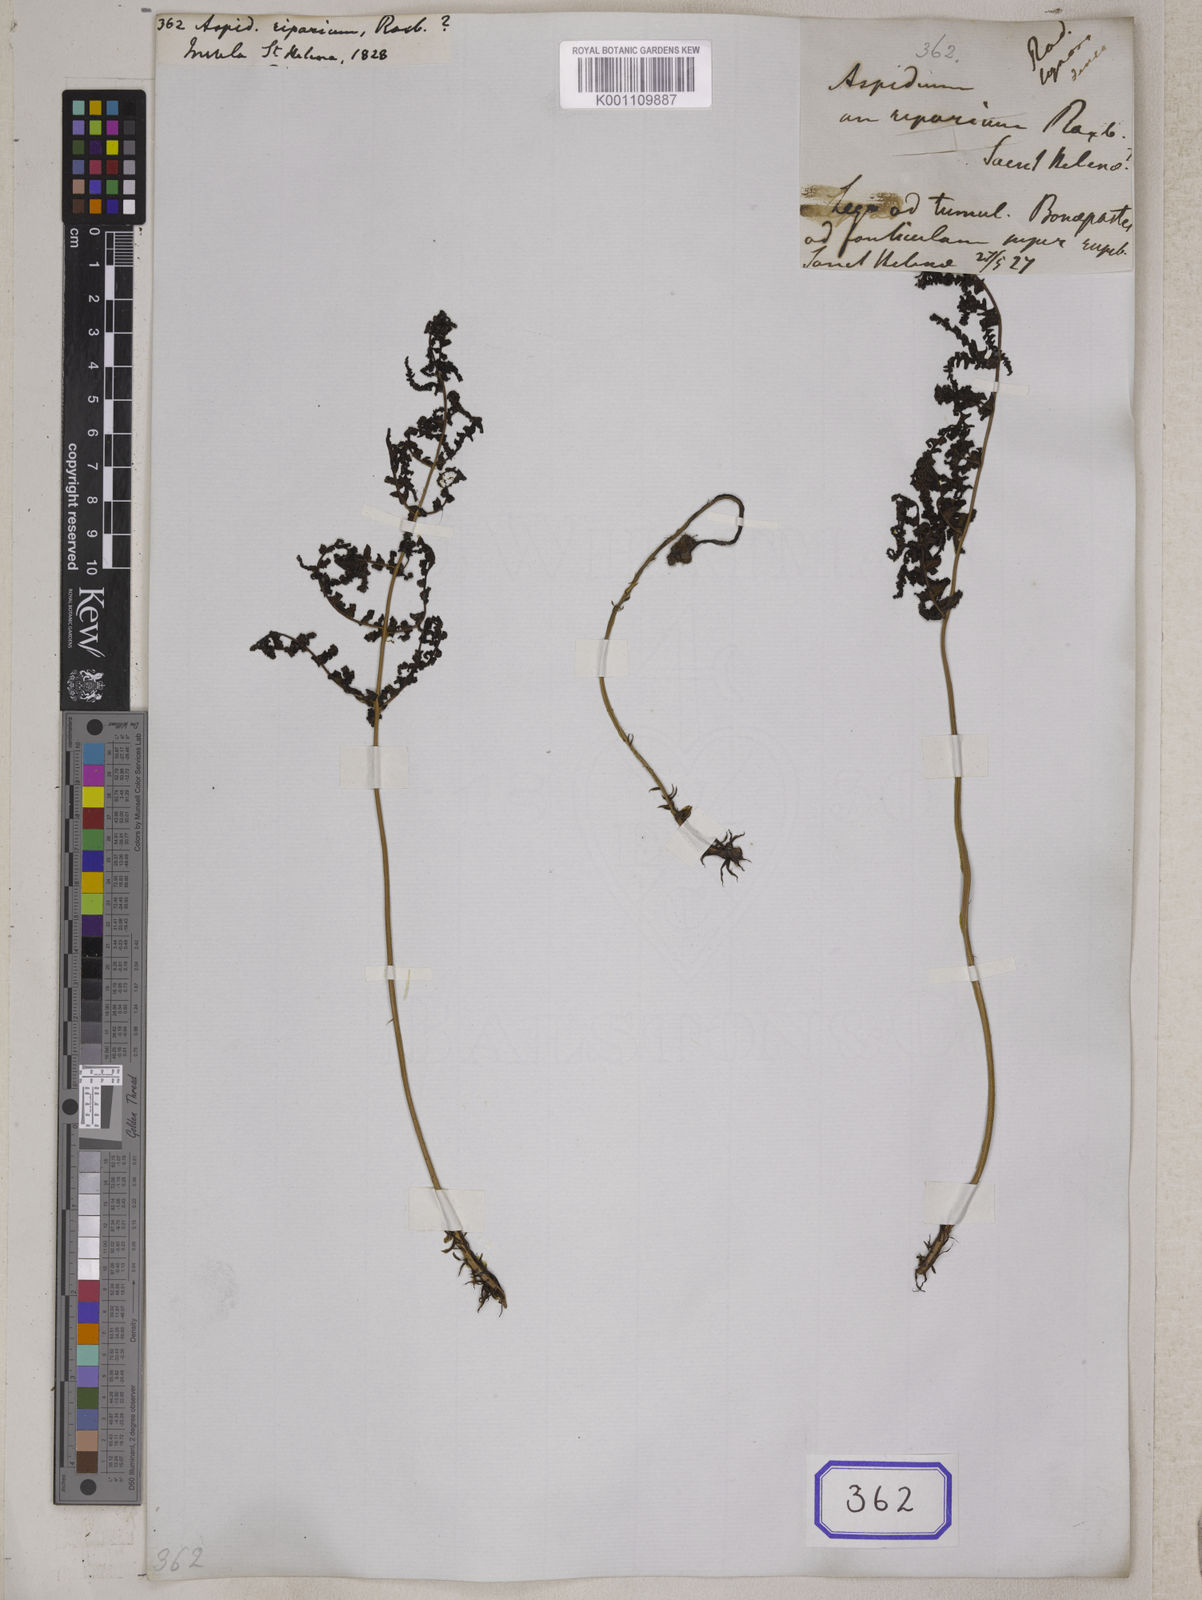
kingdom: Plantae
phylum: Tracheophyta
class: Polypodiopsida
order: Polypodiales
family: Tectariaceae
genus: Tectaria
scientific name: Tectaria Aspidium spec
